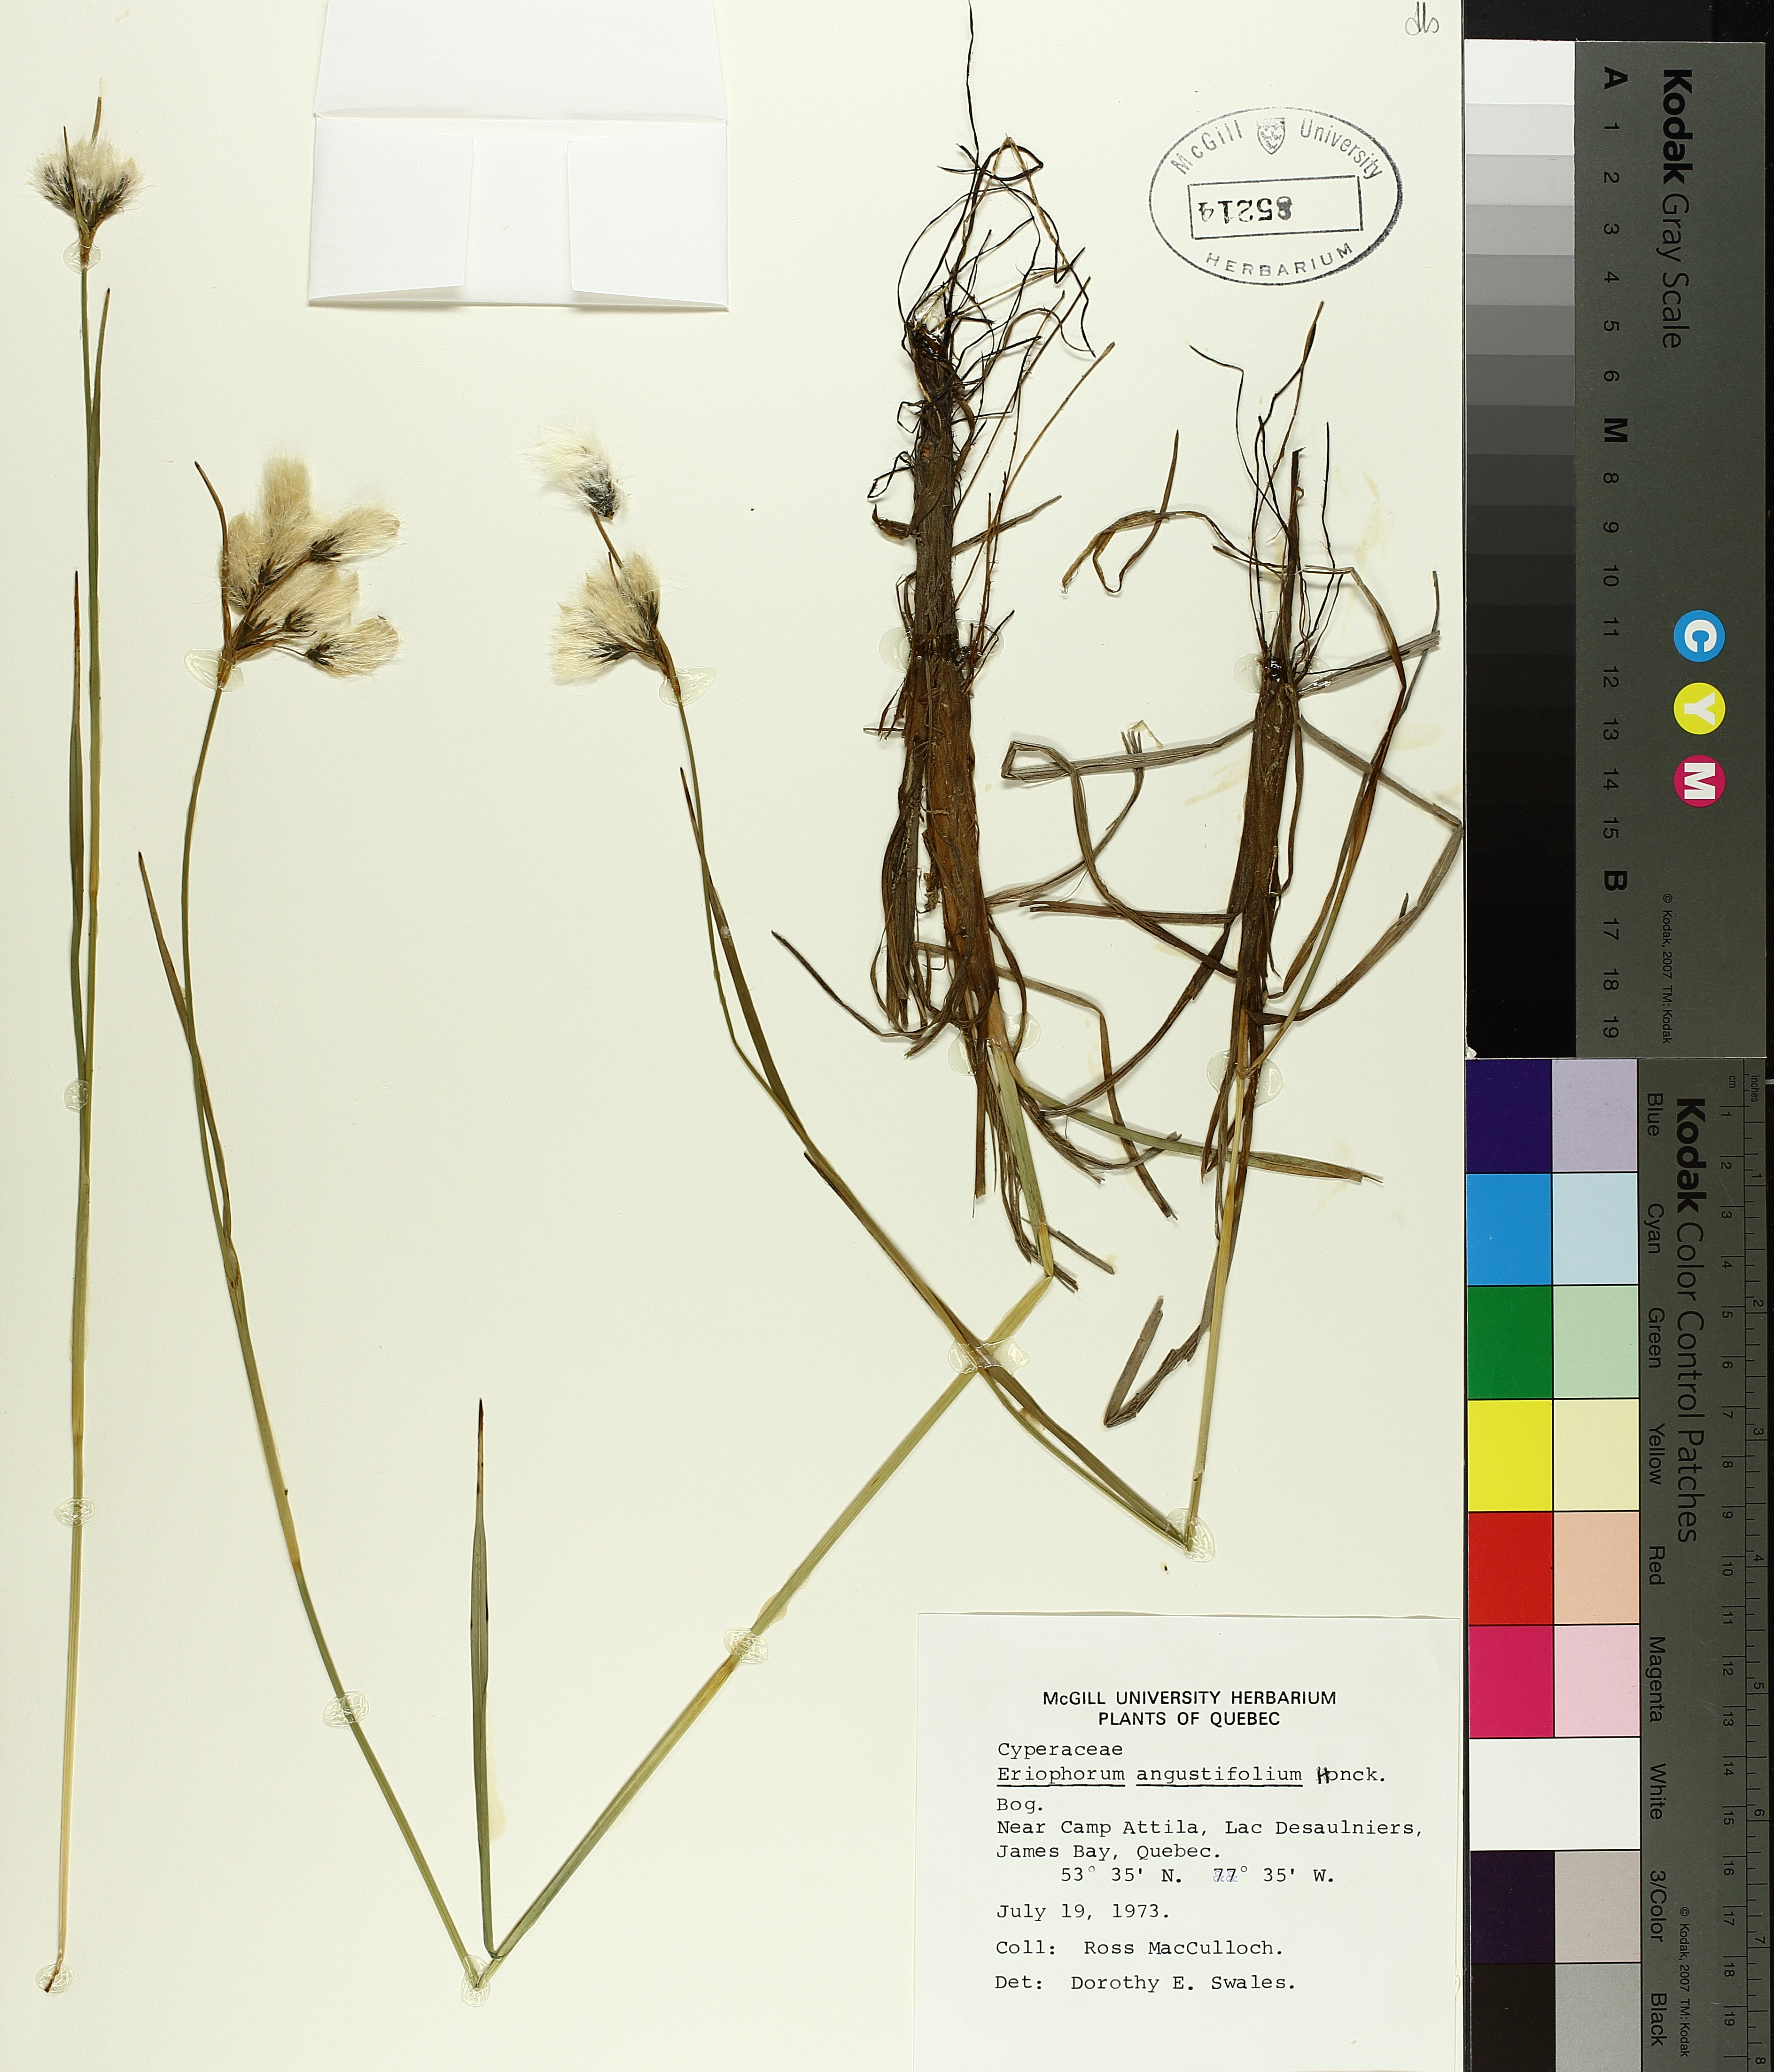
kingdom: Plantae
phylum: Tracheophyta
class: Liliopsida
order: Poales
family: Cyperaceae
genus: Eriophorum
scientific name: Eriophorum triste
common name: Tall cottongrass
